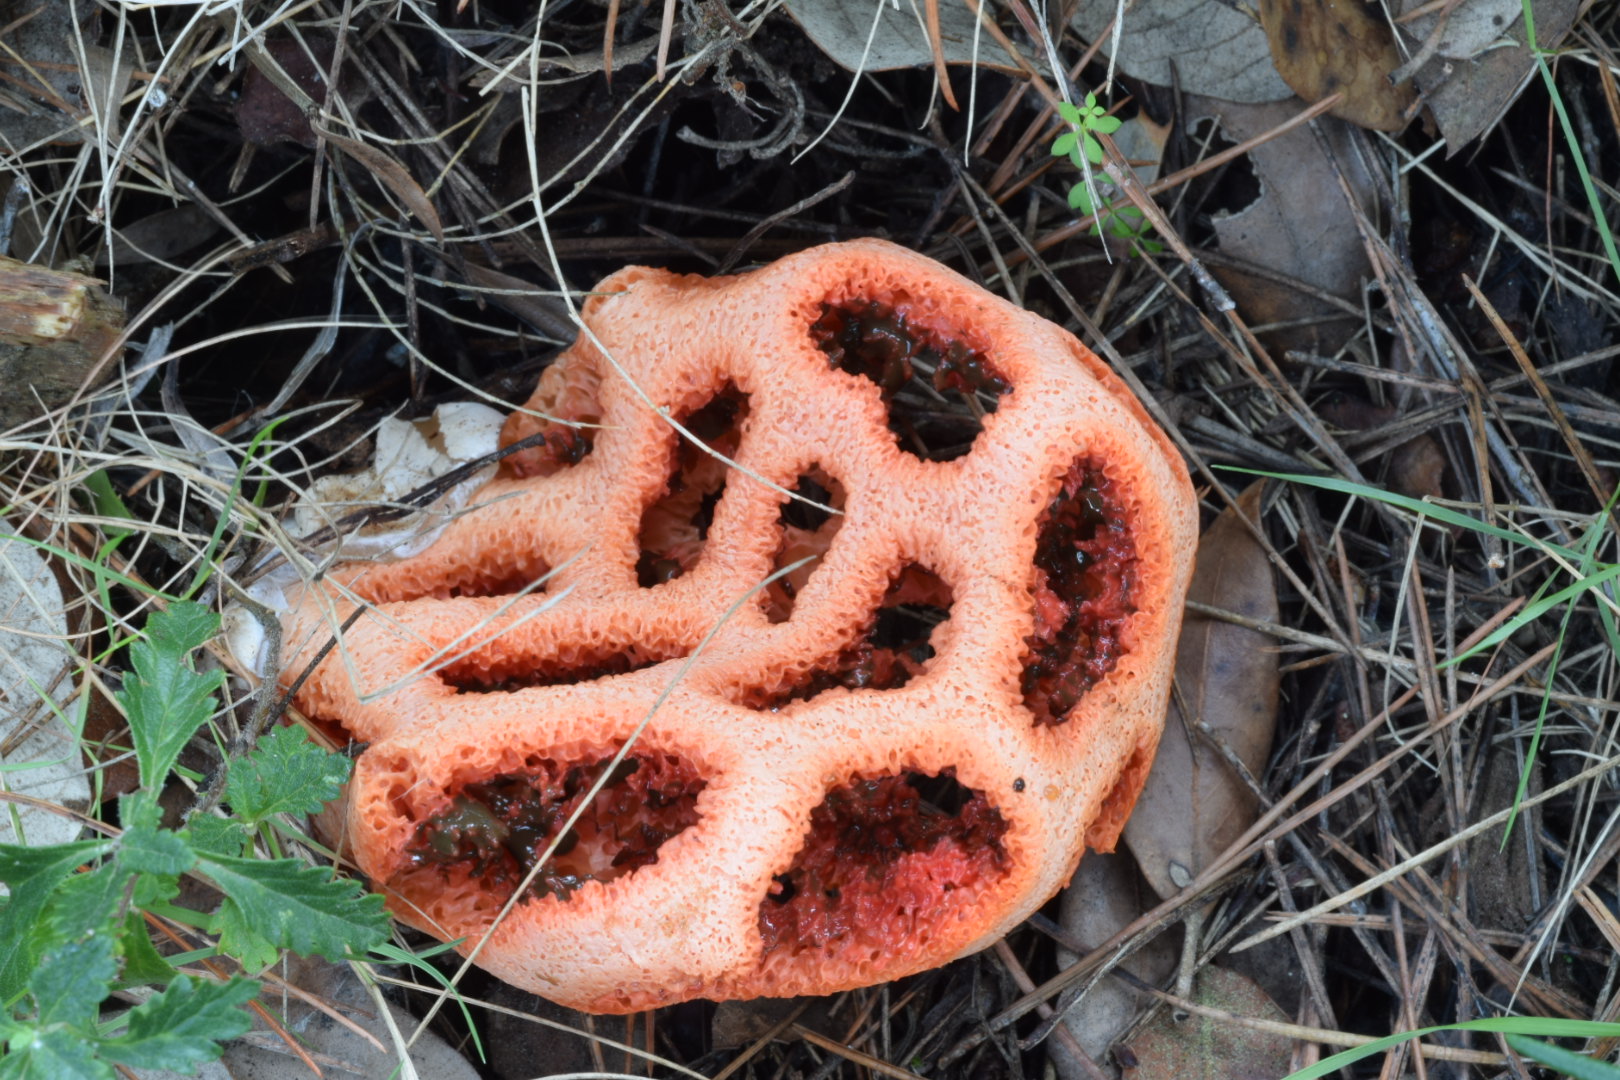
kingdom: Fungi
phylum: Basidiomycota
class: Agaricomycetes
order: Phallales
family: Phallaceae
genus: Clathrus
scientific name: Clathrus ruber
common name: rød gitterkugle
